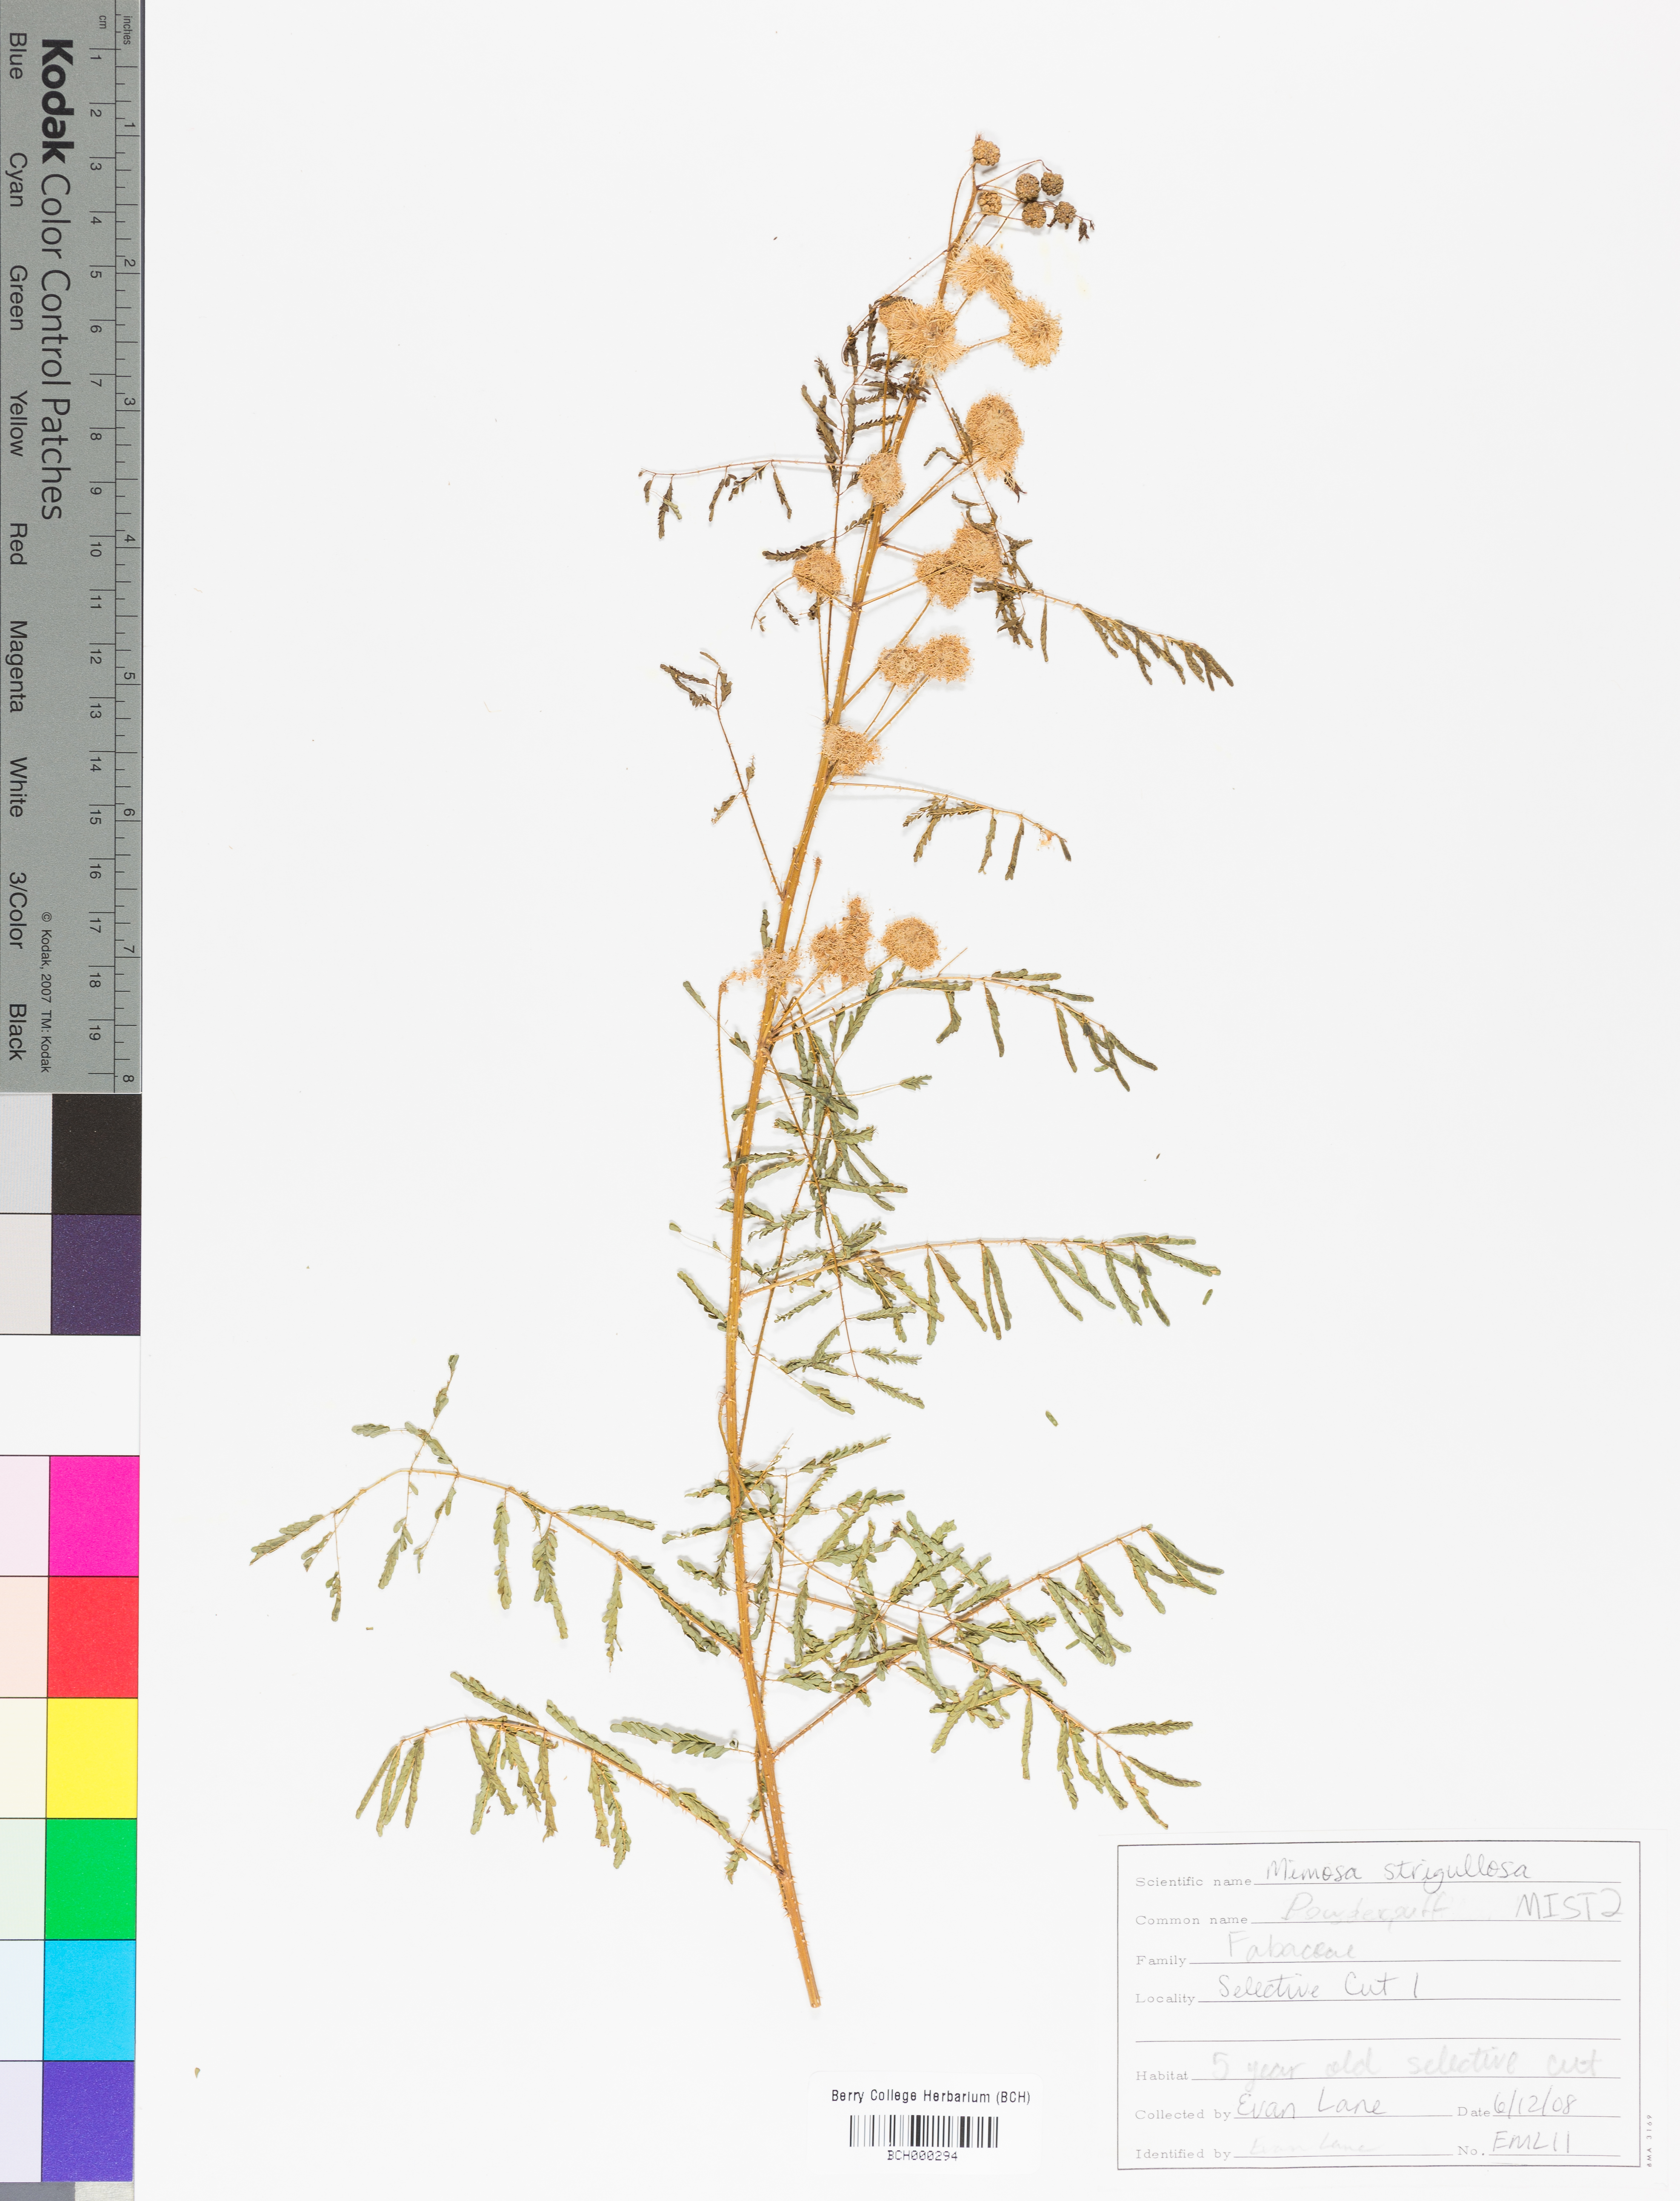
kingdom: Plantae
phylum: Tracheophyta
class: Magnoliopsida
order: Fabales
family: Fabaceae
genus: Mimosa
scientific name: Mimosa strigillosa
